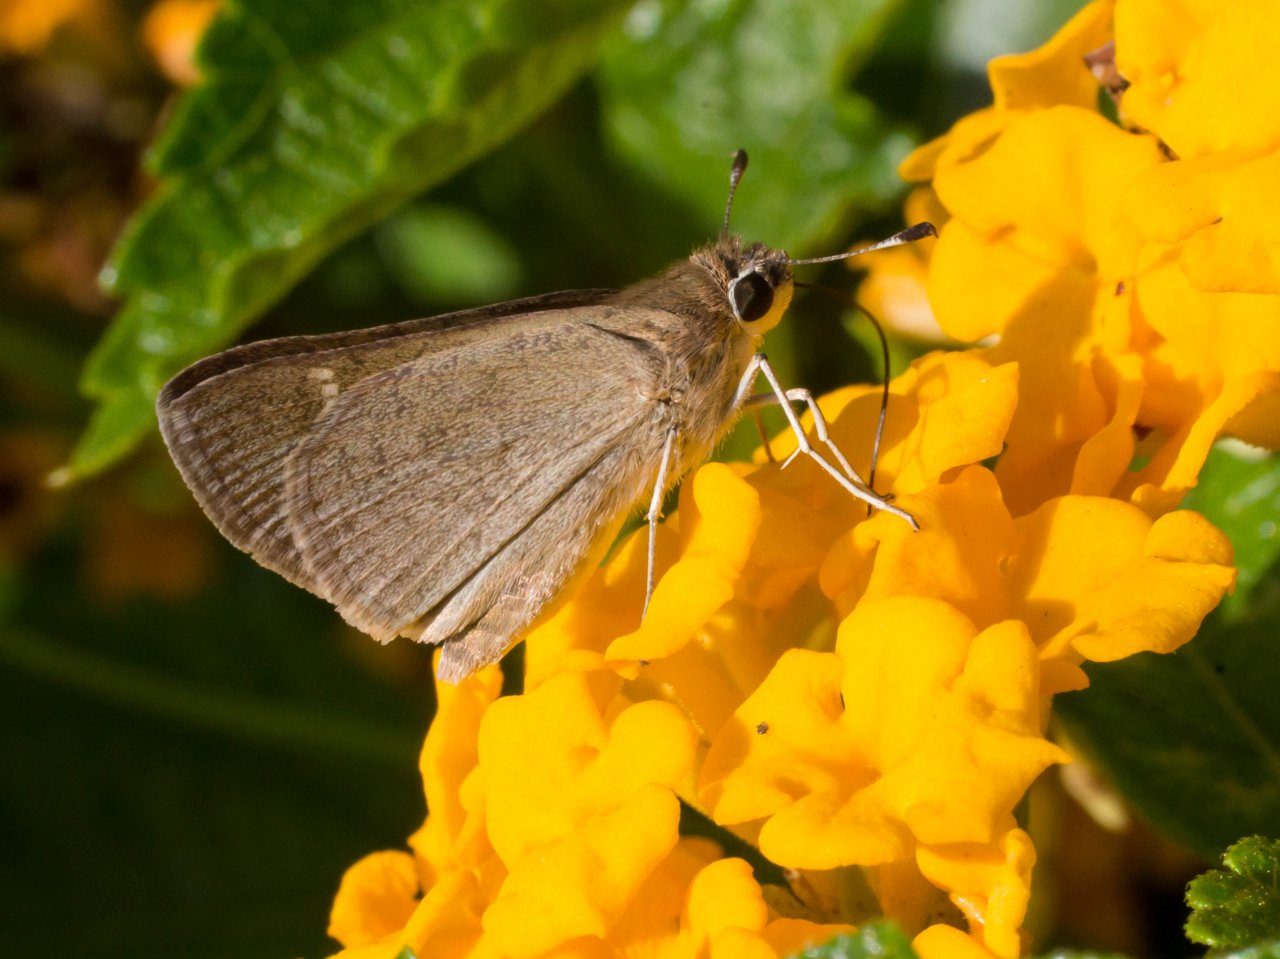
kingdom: Animalia
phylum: Arthropoda
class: Insecta
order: Lepidoptera
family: Hesperiidae
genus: Lerodea
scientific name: Lerodea eufala
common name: Eufala Skipper
